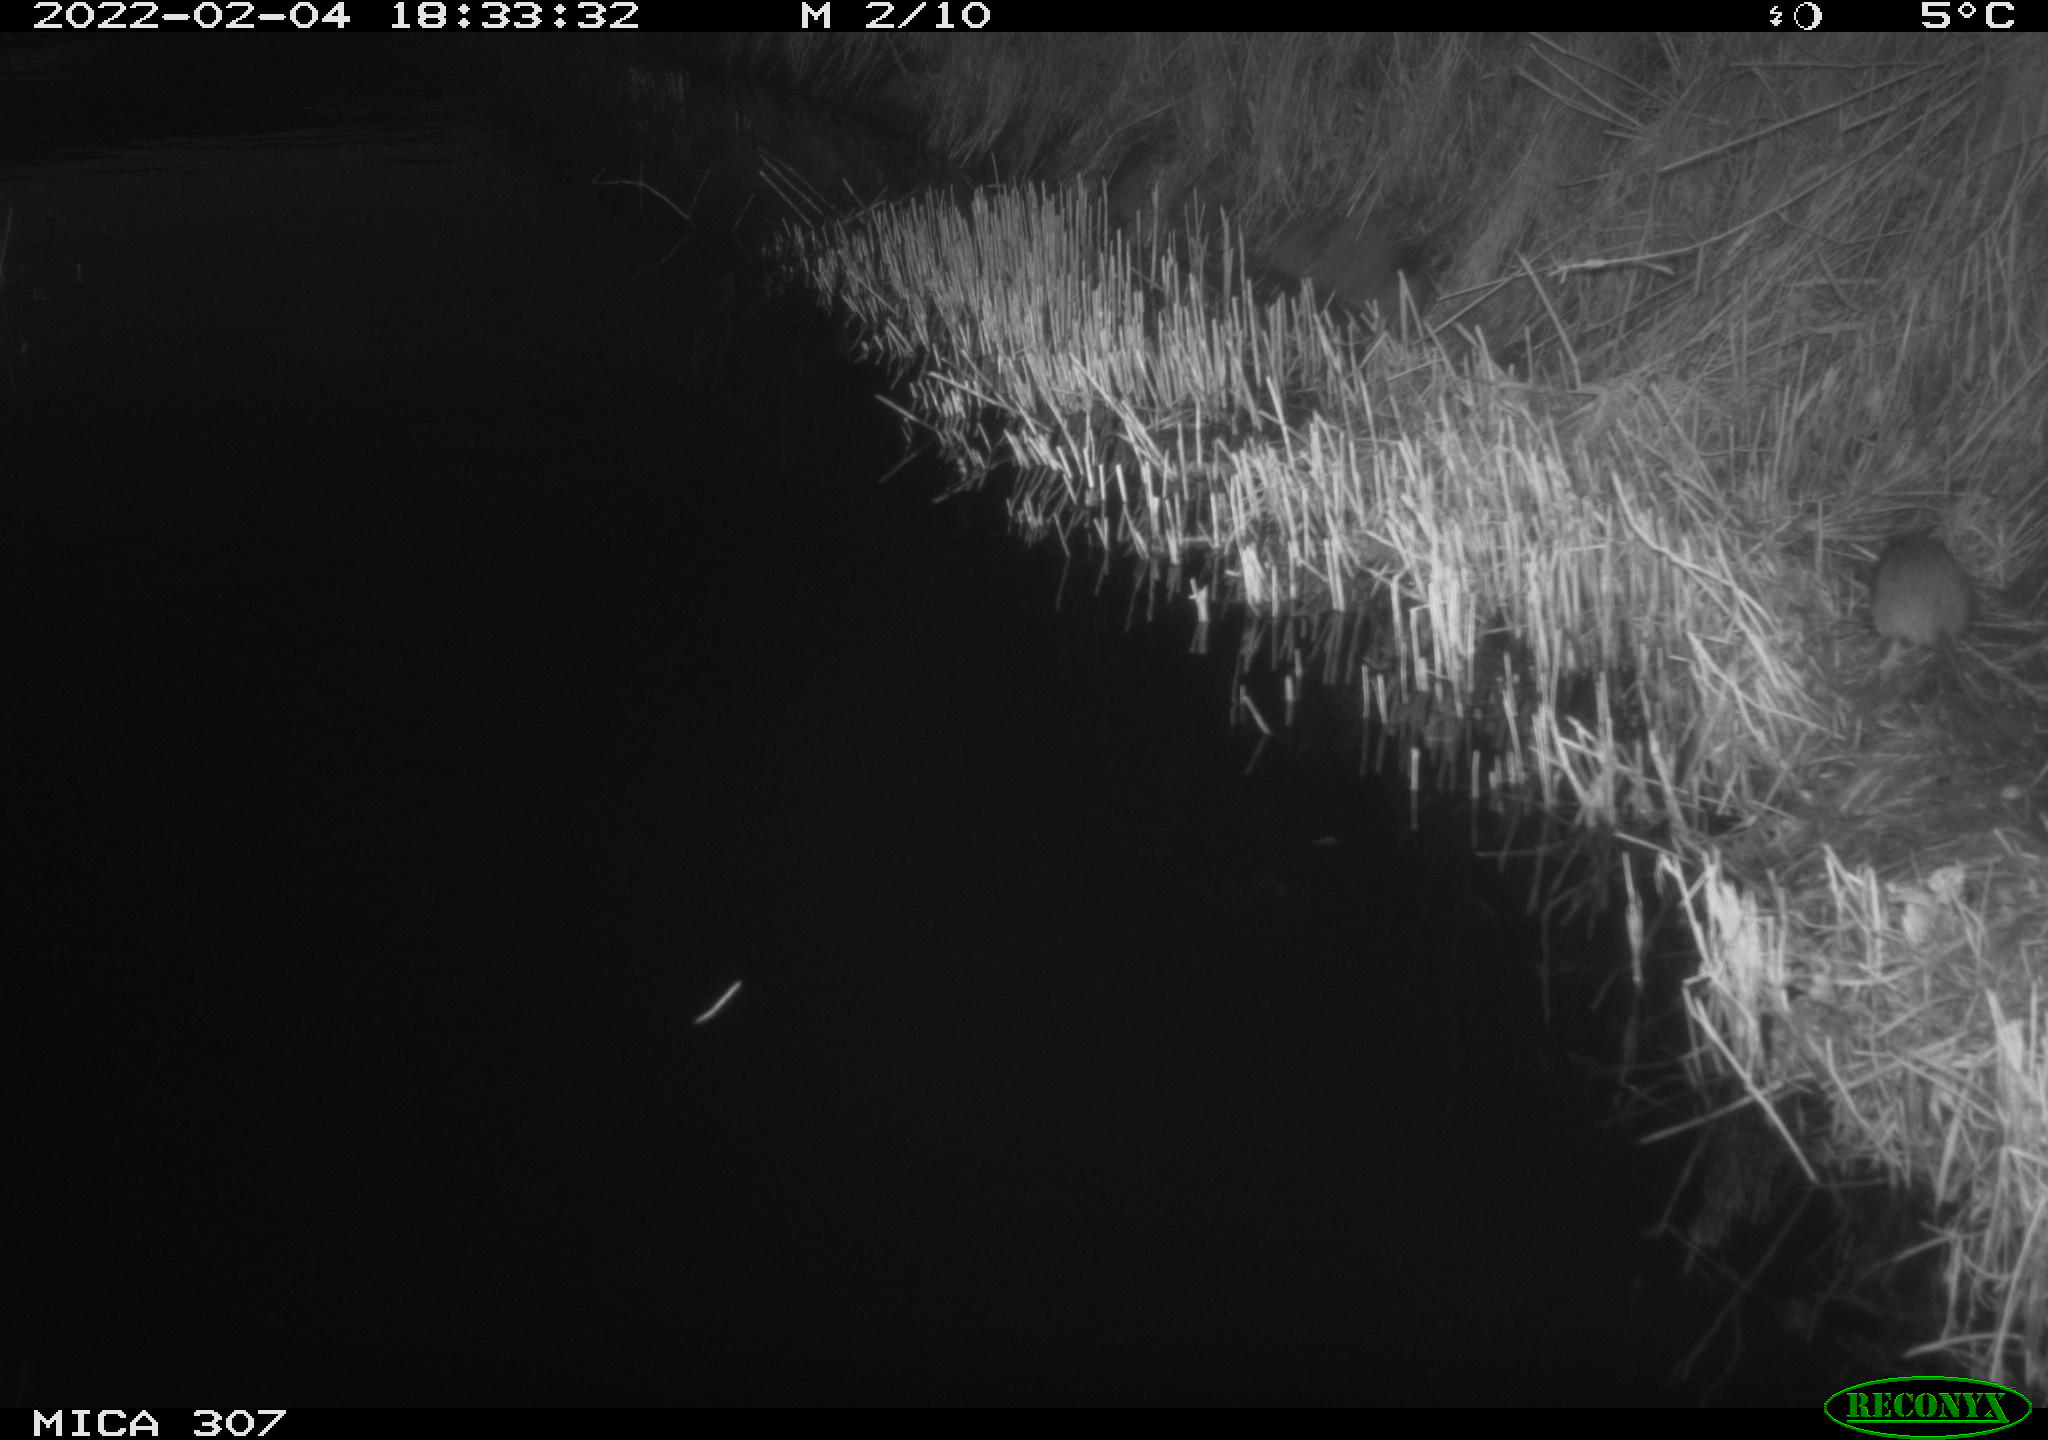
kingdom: Animalia
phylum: Chordata
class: Mammalia
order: Rodentia
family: Muridae
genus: Rattus
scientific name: Rattus norvegicus
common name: Brown rat
